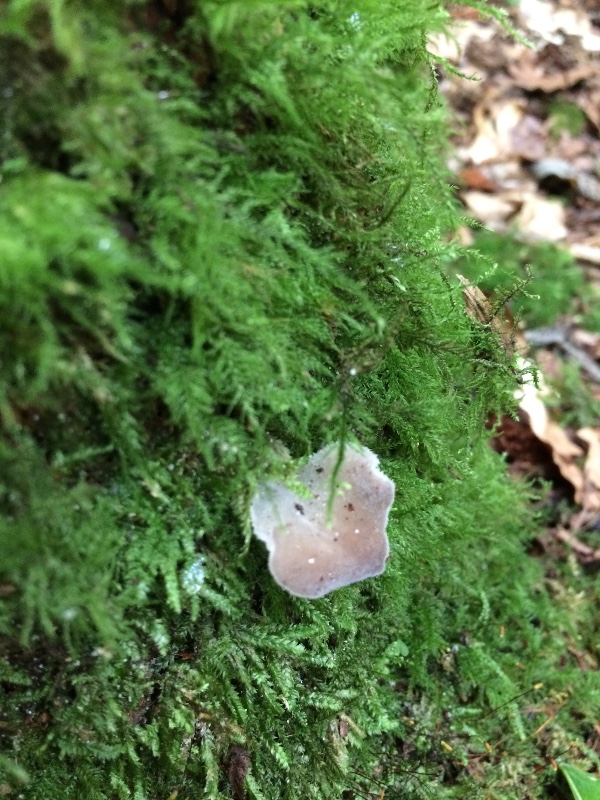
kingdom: Fungi
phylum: Basidiomycota
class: Agaricomycetes
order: Auriculariales
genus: Pseudohydnum
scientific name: Pseudohydnum gelatinosum
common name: bævretand
